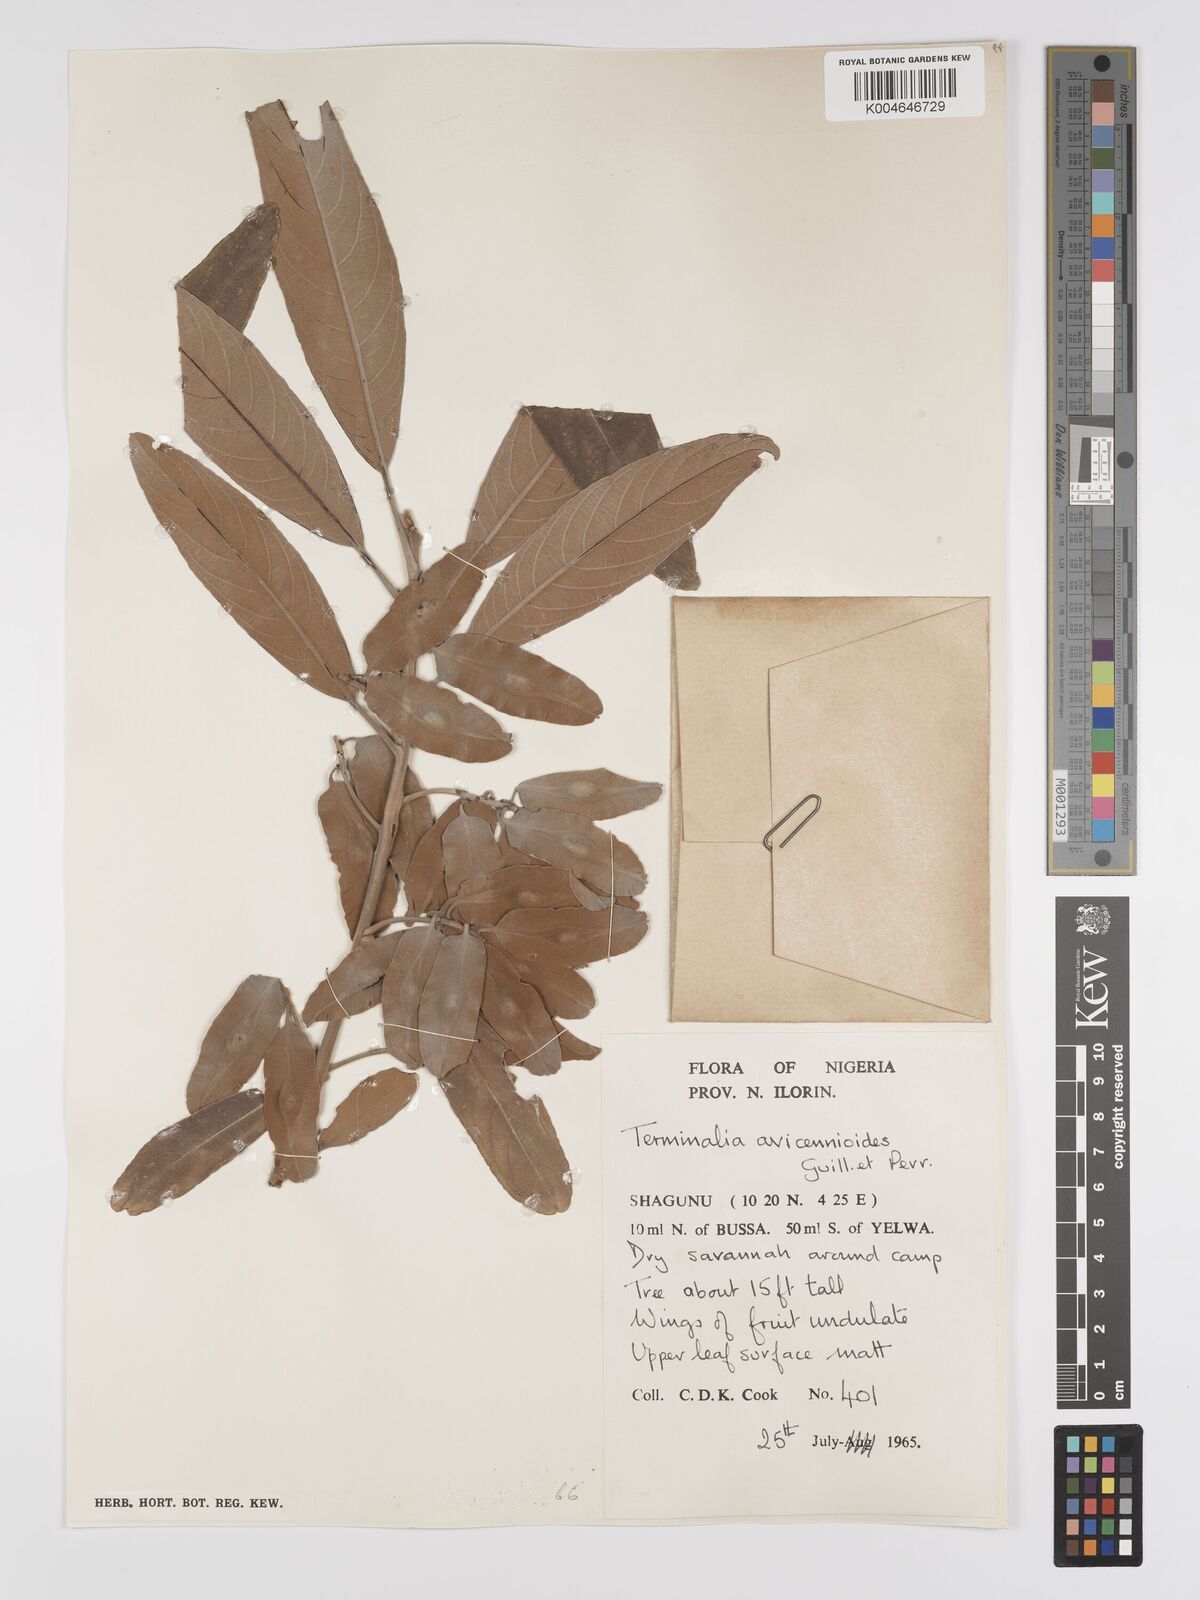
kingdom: Plantae
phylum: Tracheophyta
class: Magnoliopsida
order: Myrtales
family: Combretaceae
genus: Terminalia
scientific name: Terminalia avicennioides
